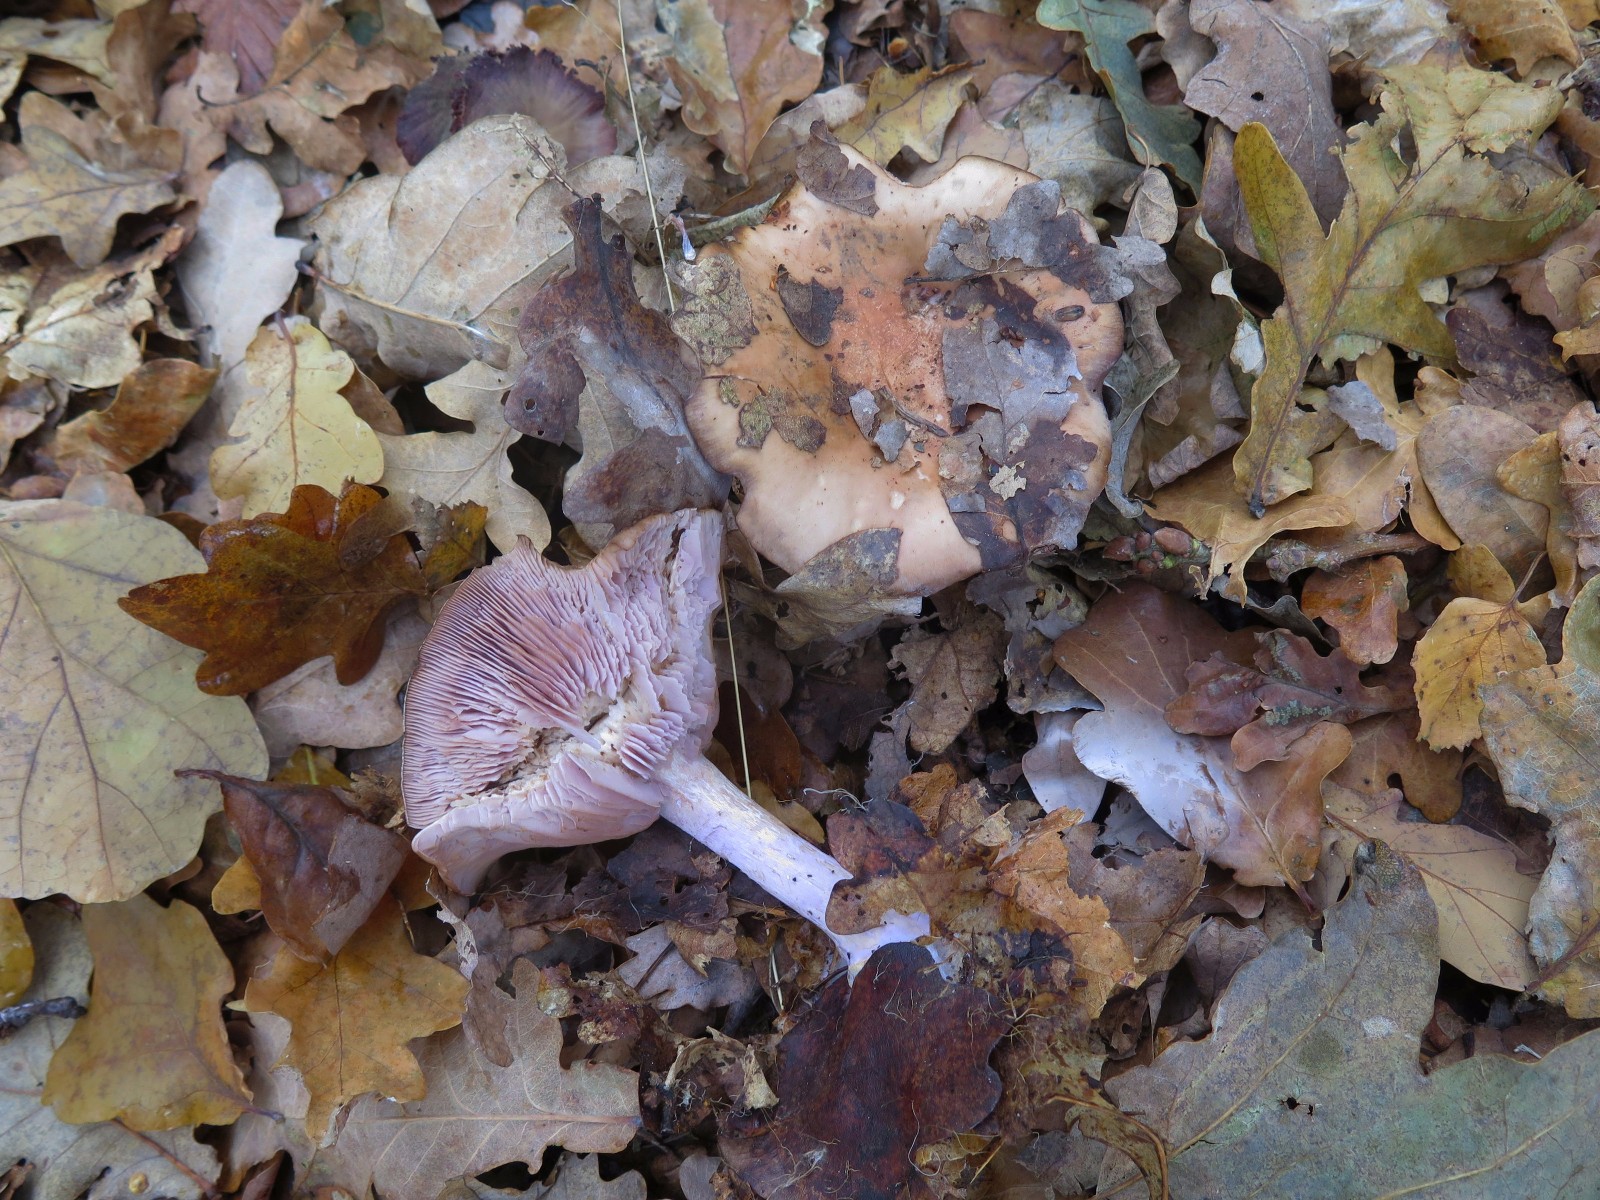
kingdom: Fungi
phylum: Basidiomycota
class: Agaricomycetes
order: Agaricales
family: Tricholomataceae
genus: Lepista
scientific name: Lepista nuda
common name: violet hekseringshat
